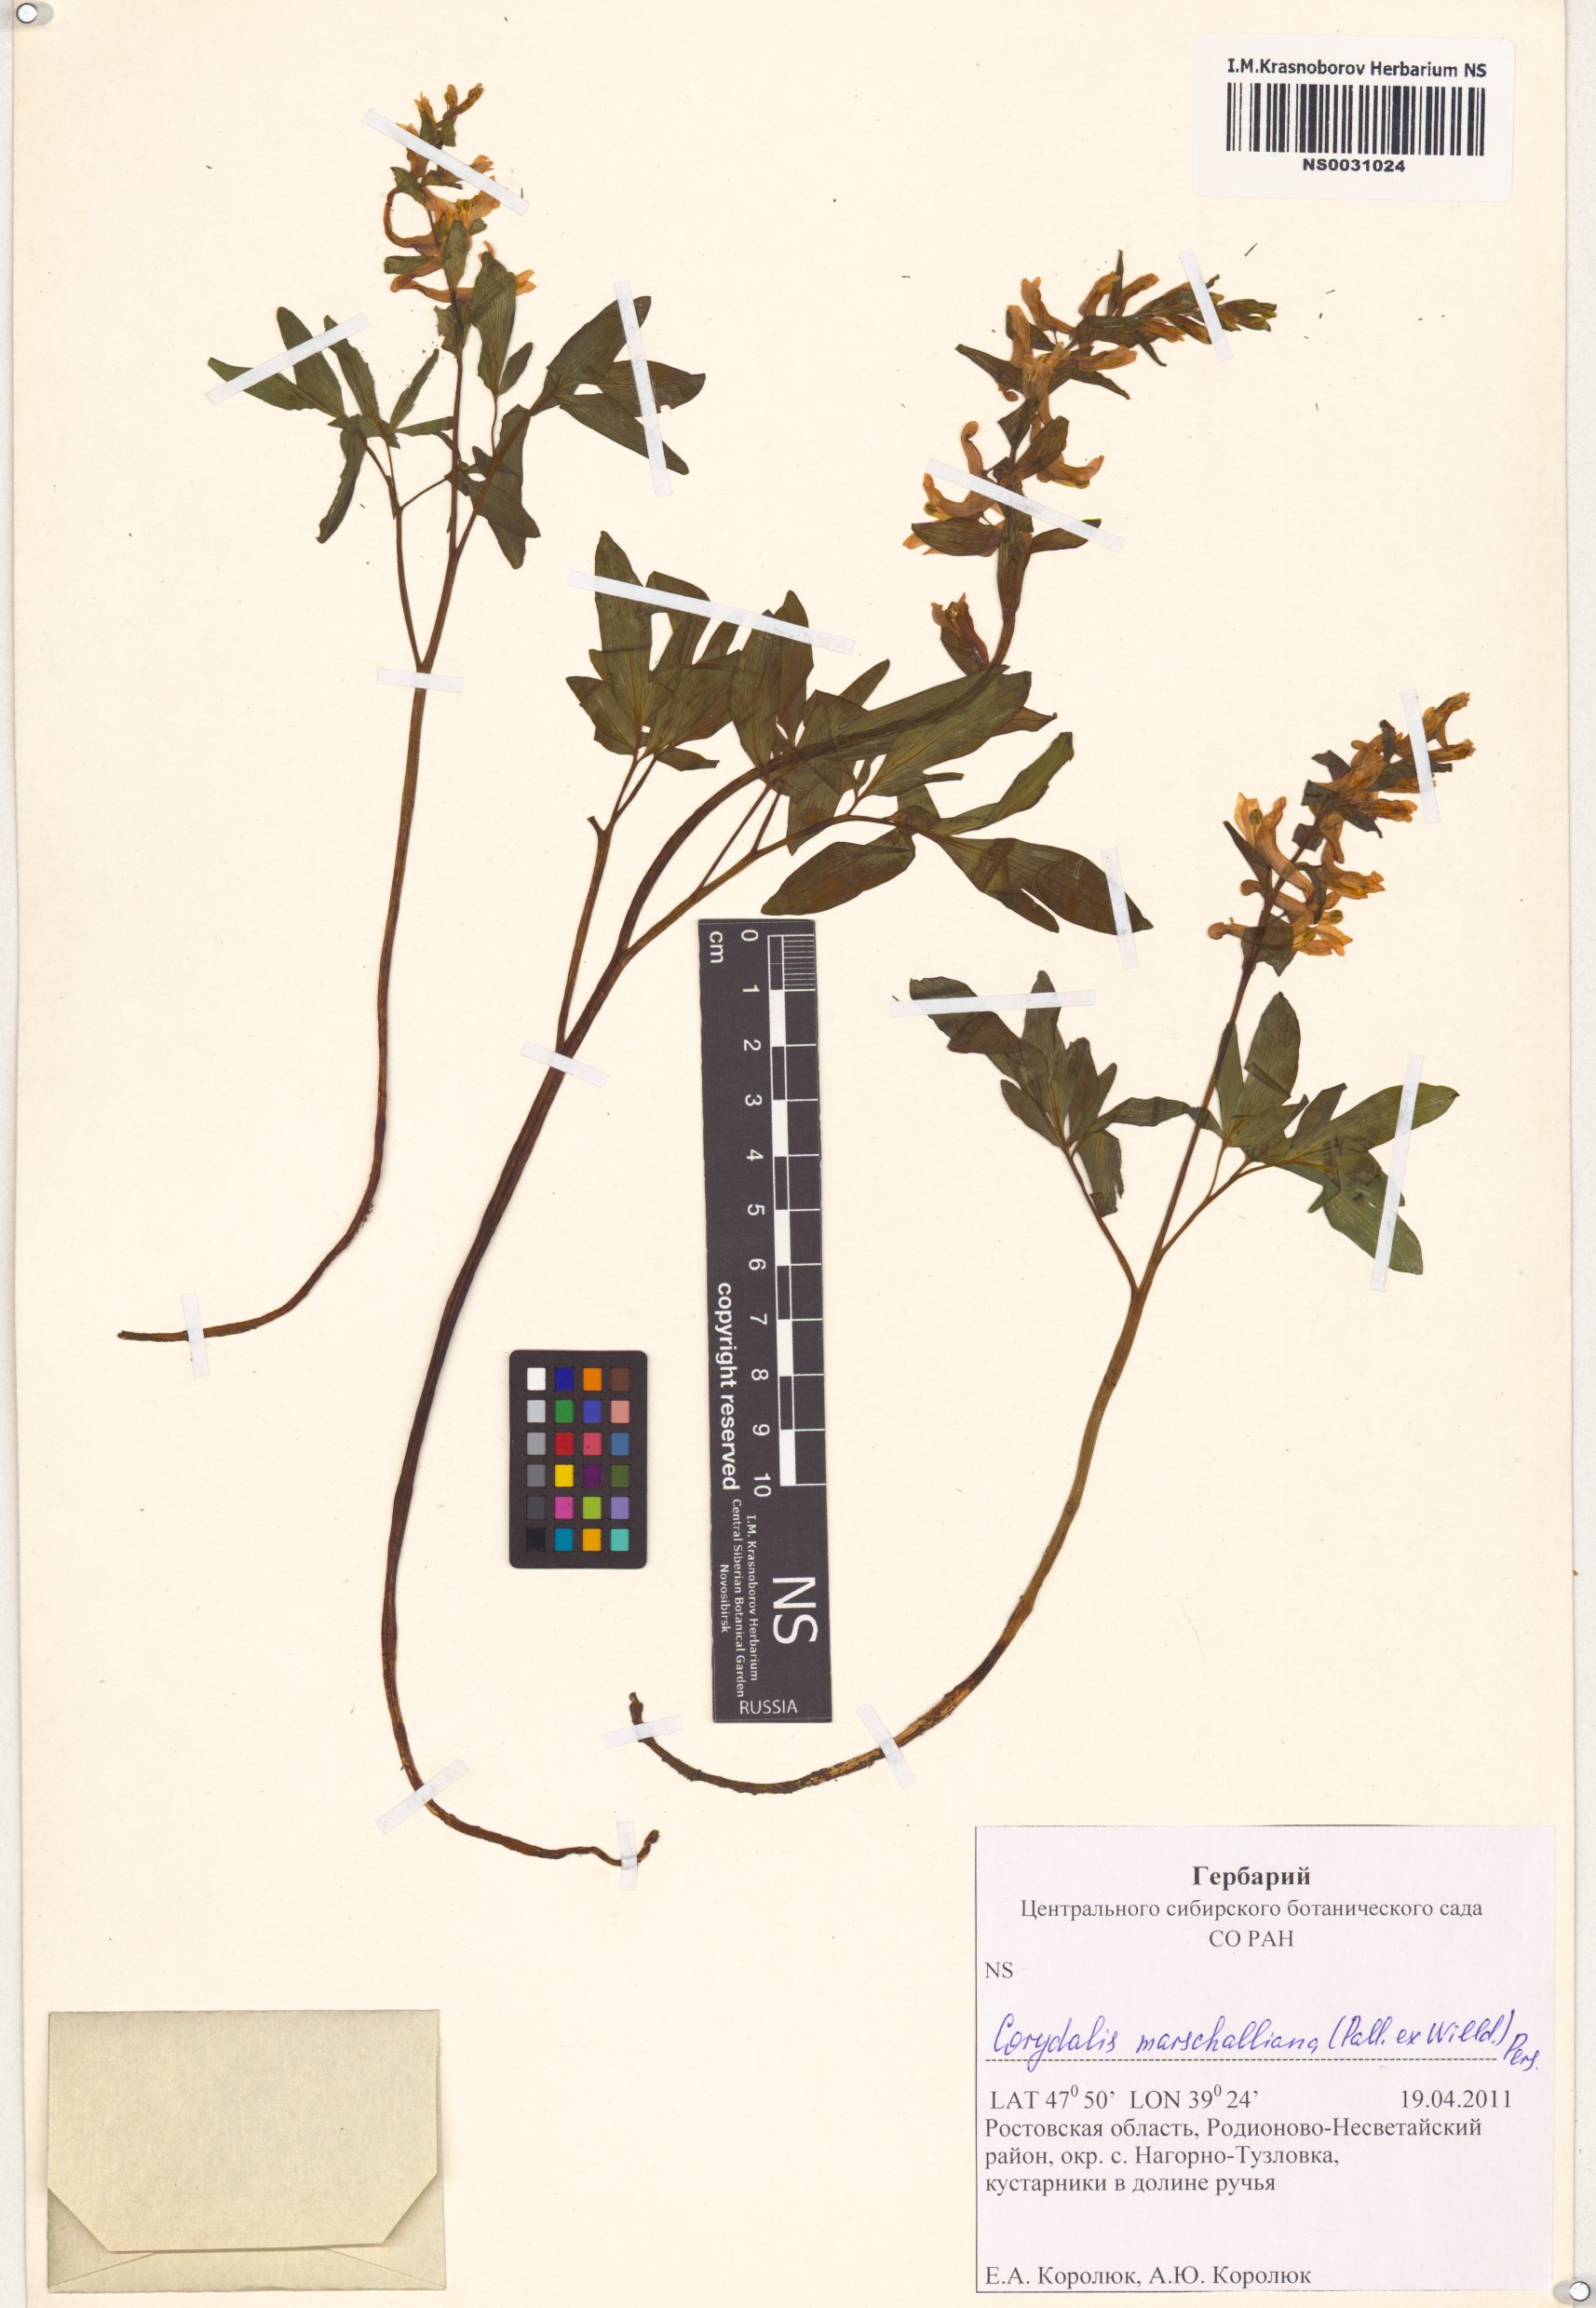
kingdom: Plantae
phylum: Tracheophyta
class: Magnoliopsida
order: Ranunculales
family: Papaveraceae
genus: Corydalis
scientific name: Corydalis cava
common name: Hollowroot
